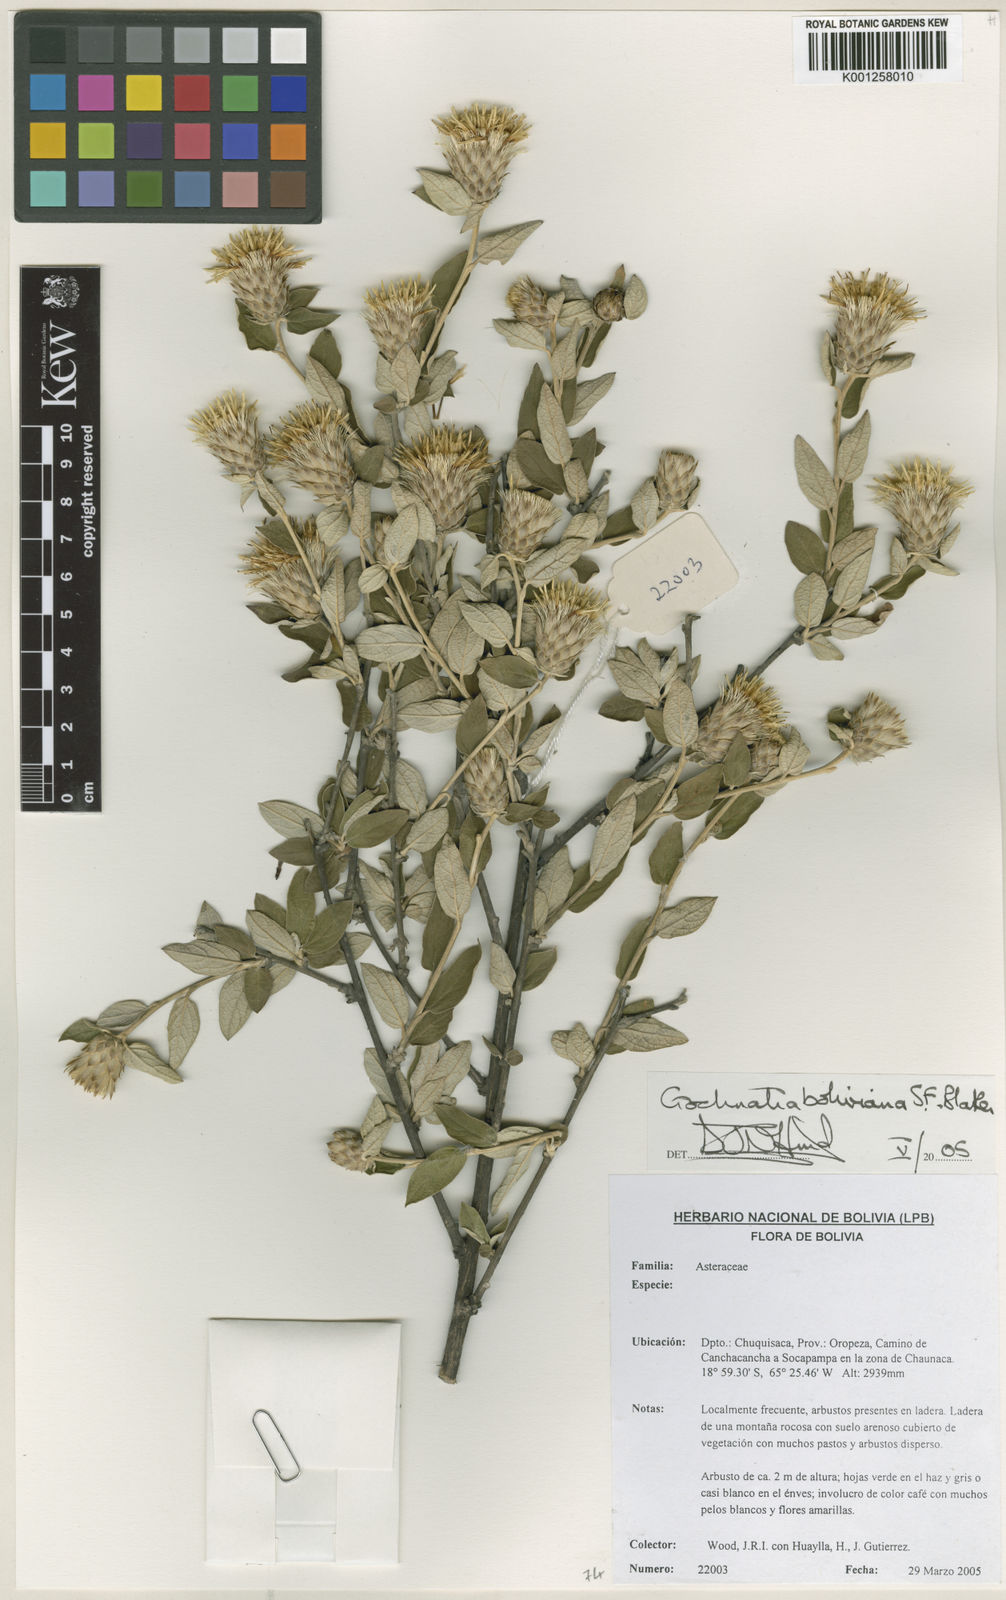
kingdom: Plantae
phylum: Tracheophyta
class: Magnoliopsida
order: Asterales
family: Asteraceae
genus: Gochnatia
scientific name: Gochnatia boliviana
